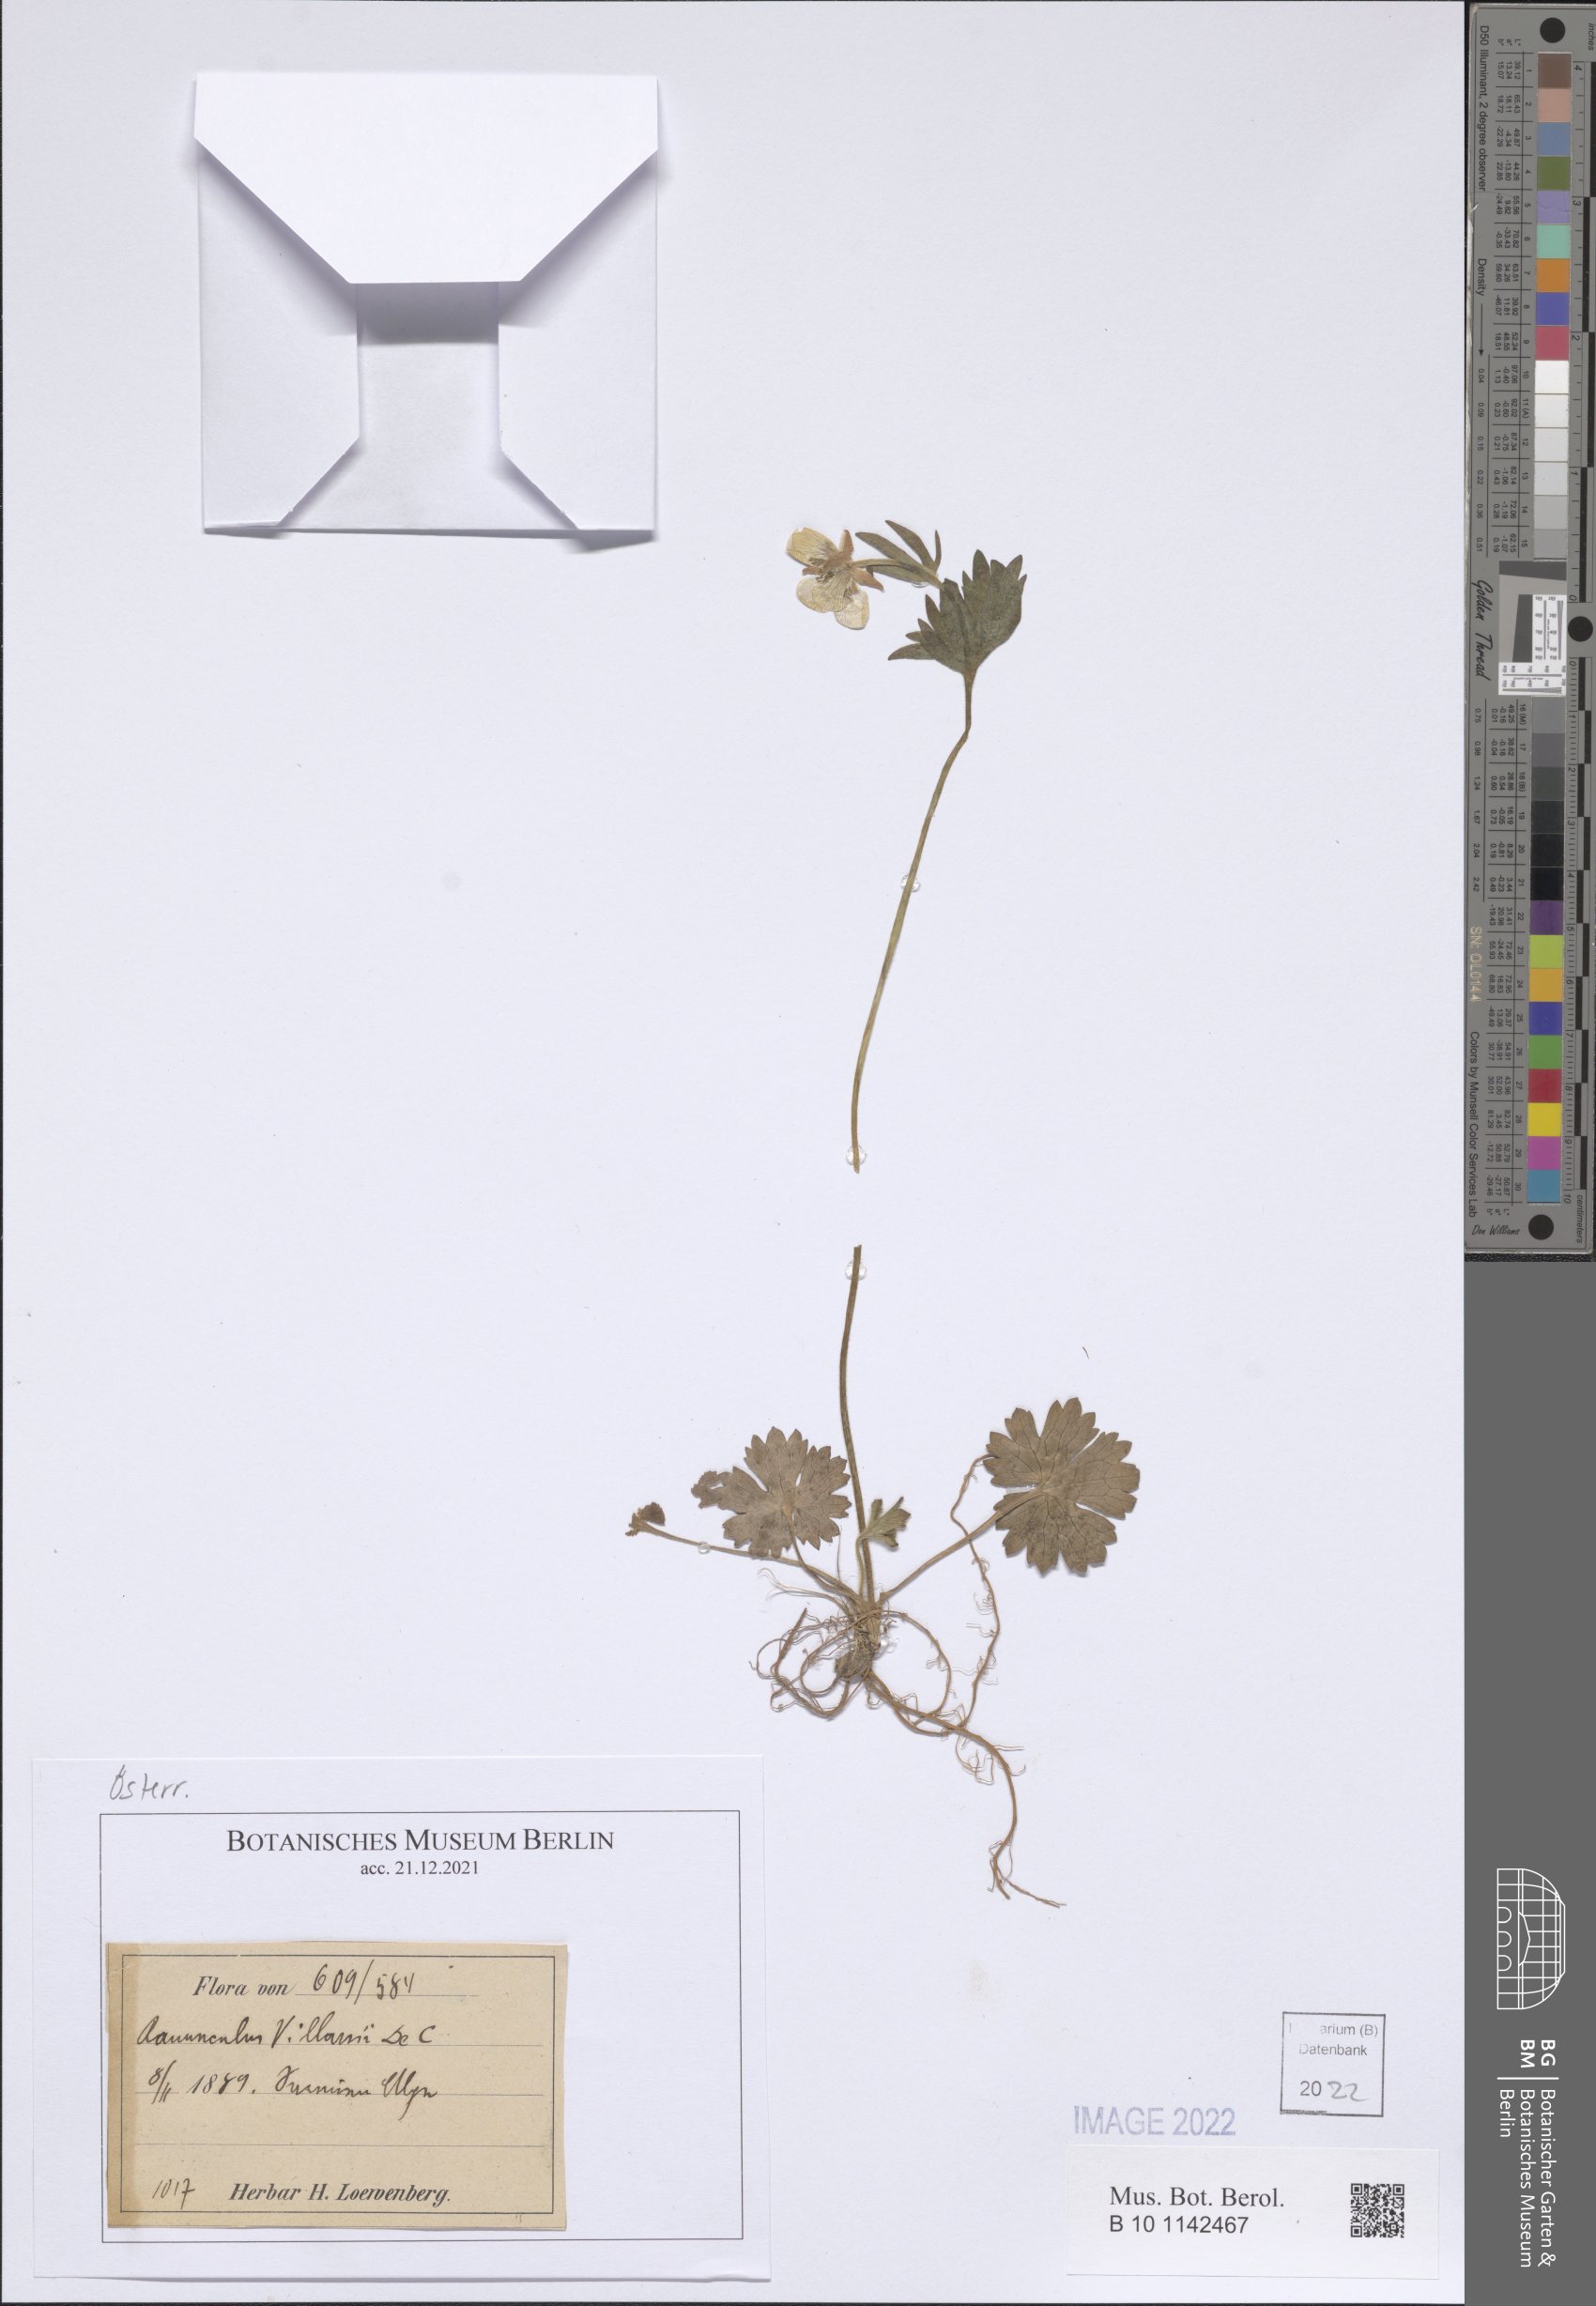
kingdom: Plantae
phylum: Tracheophyta
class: Magnoliopsida
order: Ranunculales
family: Ranunculaceae
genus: Ranunculus
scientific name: Ranunculus villarsii
